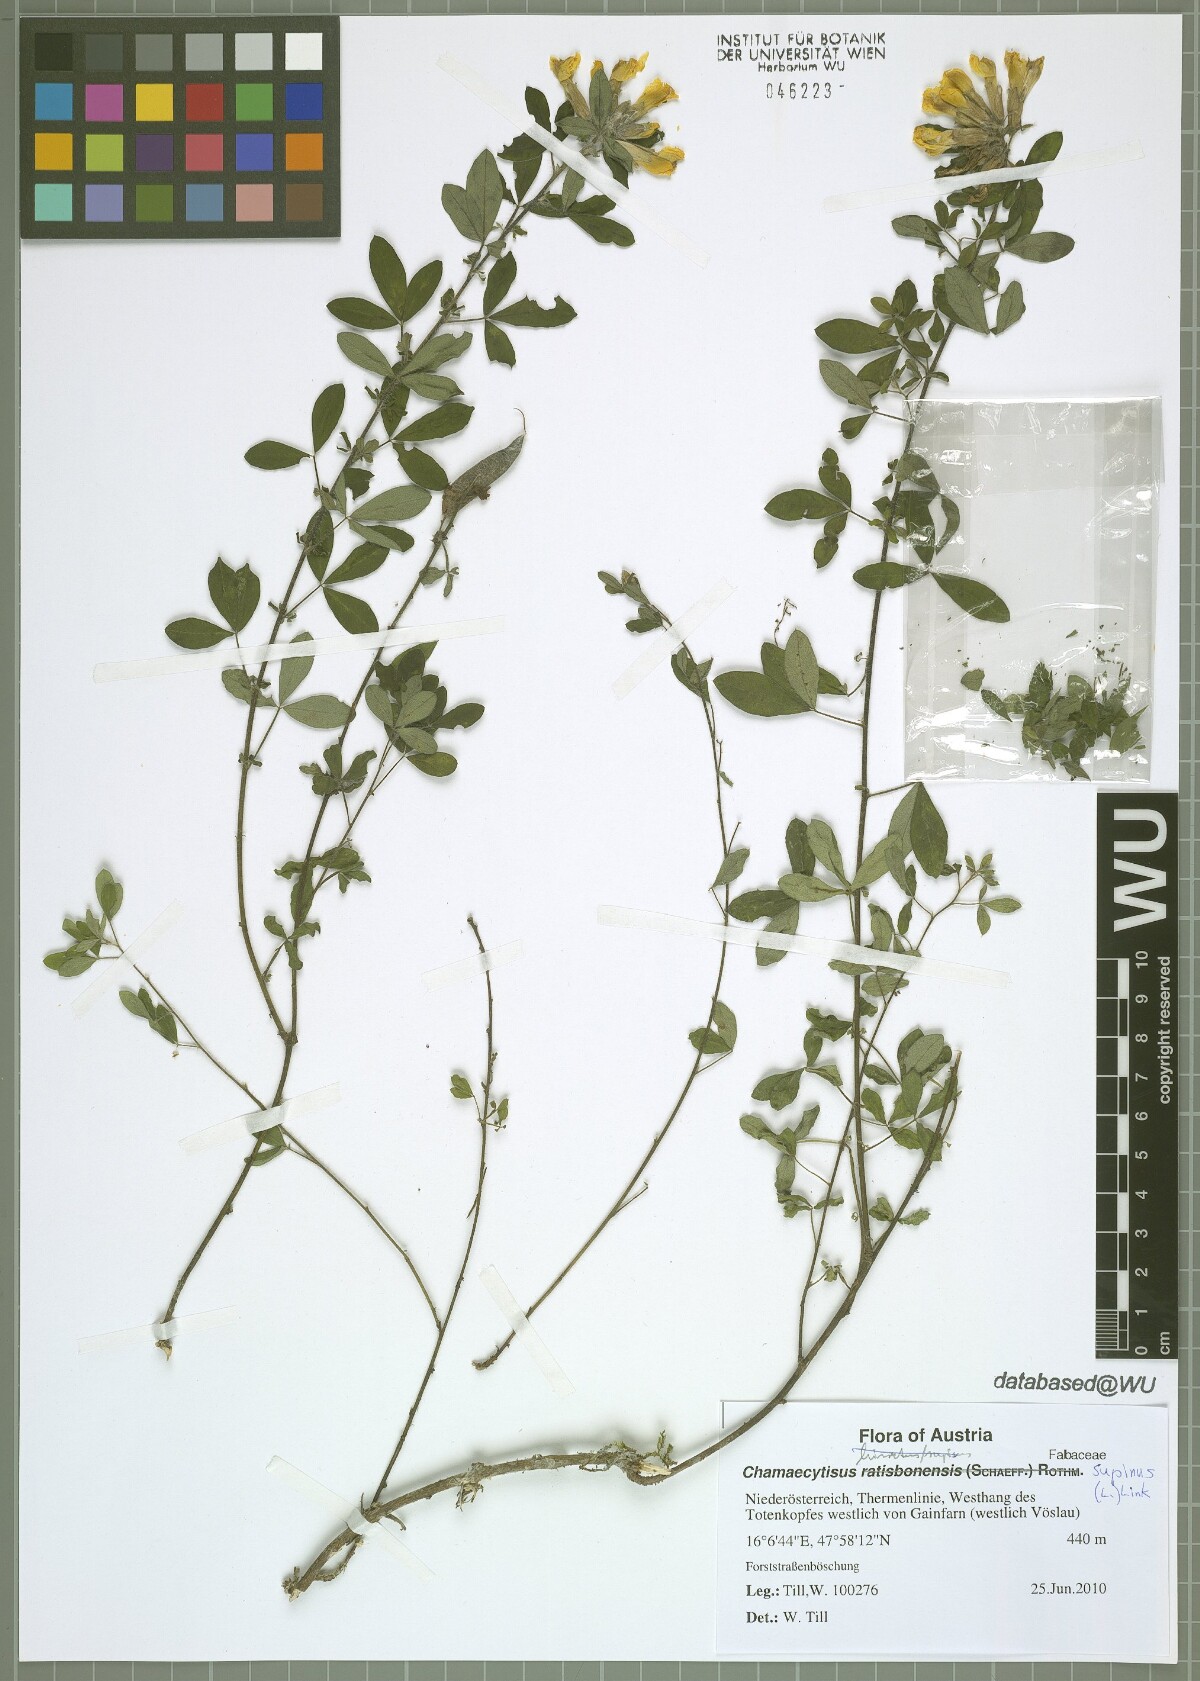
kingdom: Plantae
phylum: Tracheophyta
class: Magnoliopsida
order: Fabales
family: Fabaceae
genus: Chamaecytisus
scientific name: Chamaecytisus supinus
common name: Clustered broom
